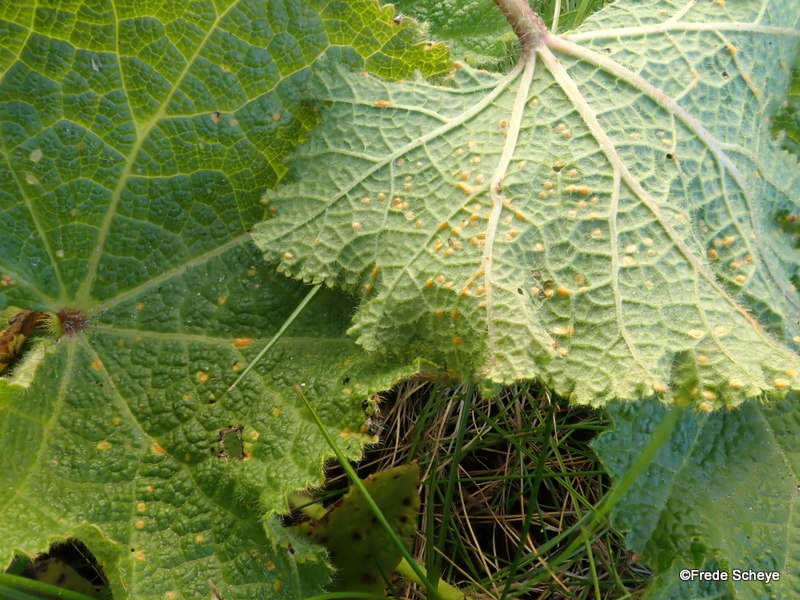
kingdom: Fungi
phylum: Basidiomycota
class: Pucciniomycetes
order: Pucciniales
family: Pucciniaceae
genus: Puccinia
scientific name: Puccinia malvacearum
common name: stokrose-tvecellerust
